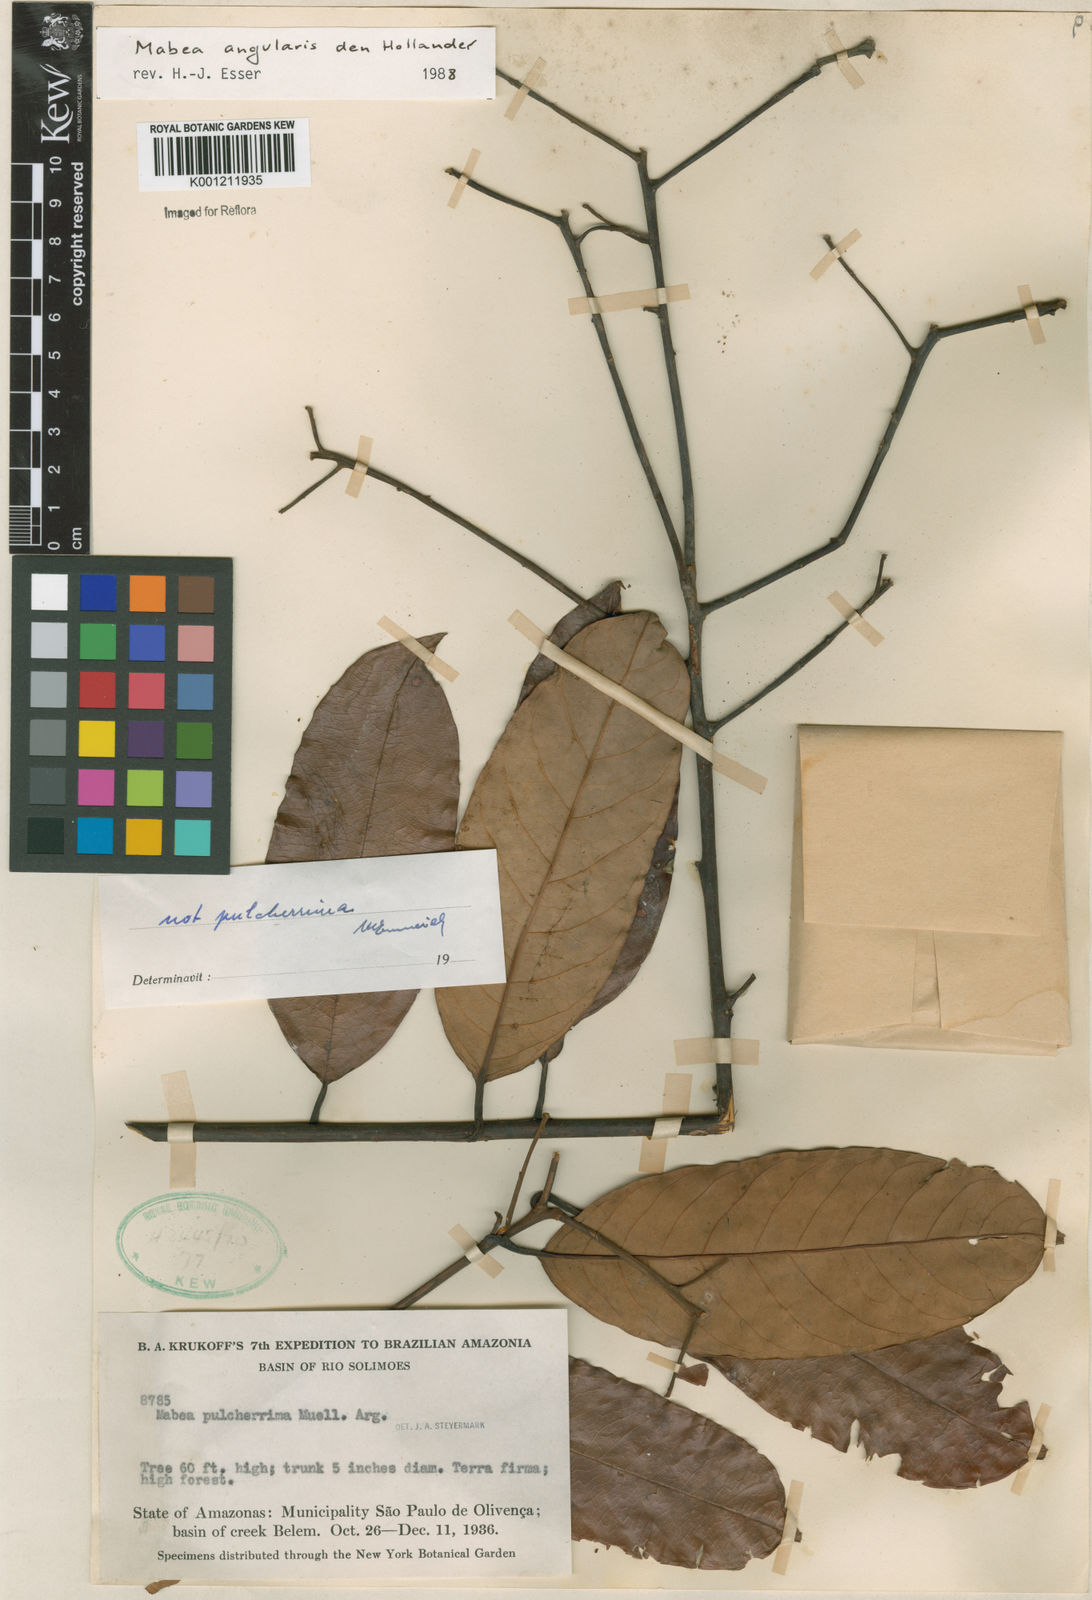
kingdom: Plantae
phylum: Tracheophyta
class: Magnoliopsida
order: Malpighiales
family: Euphorbiaceae
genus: Mabea
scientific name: Mabea angularis
